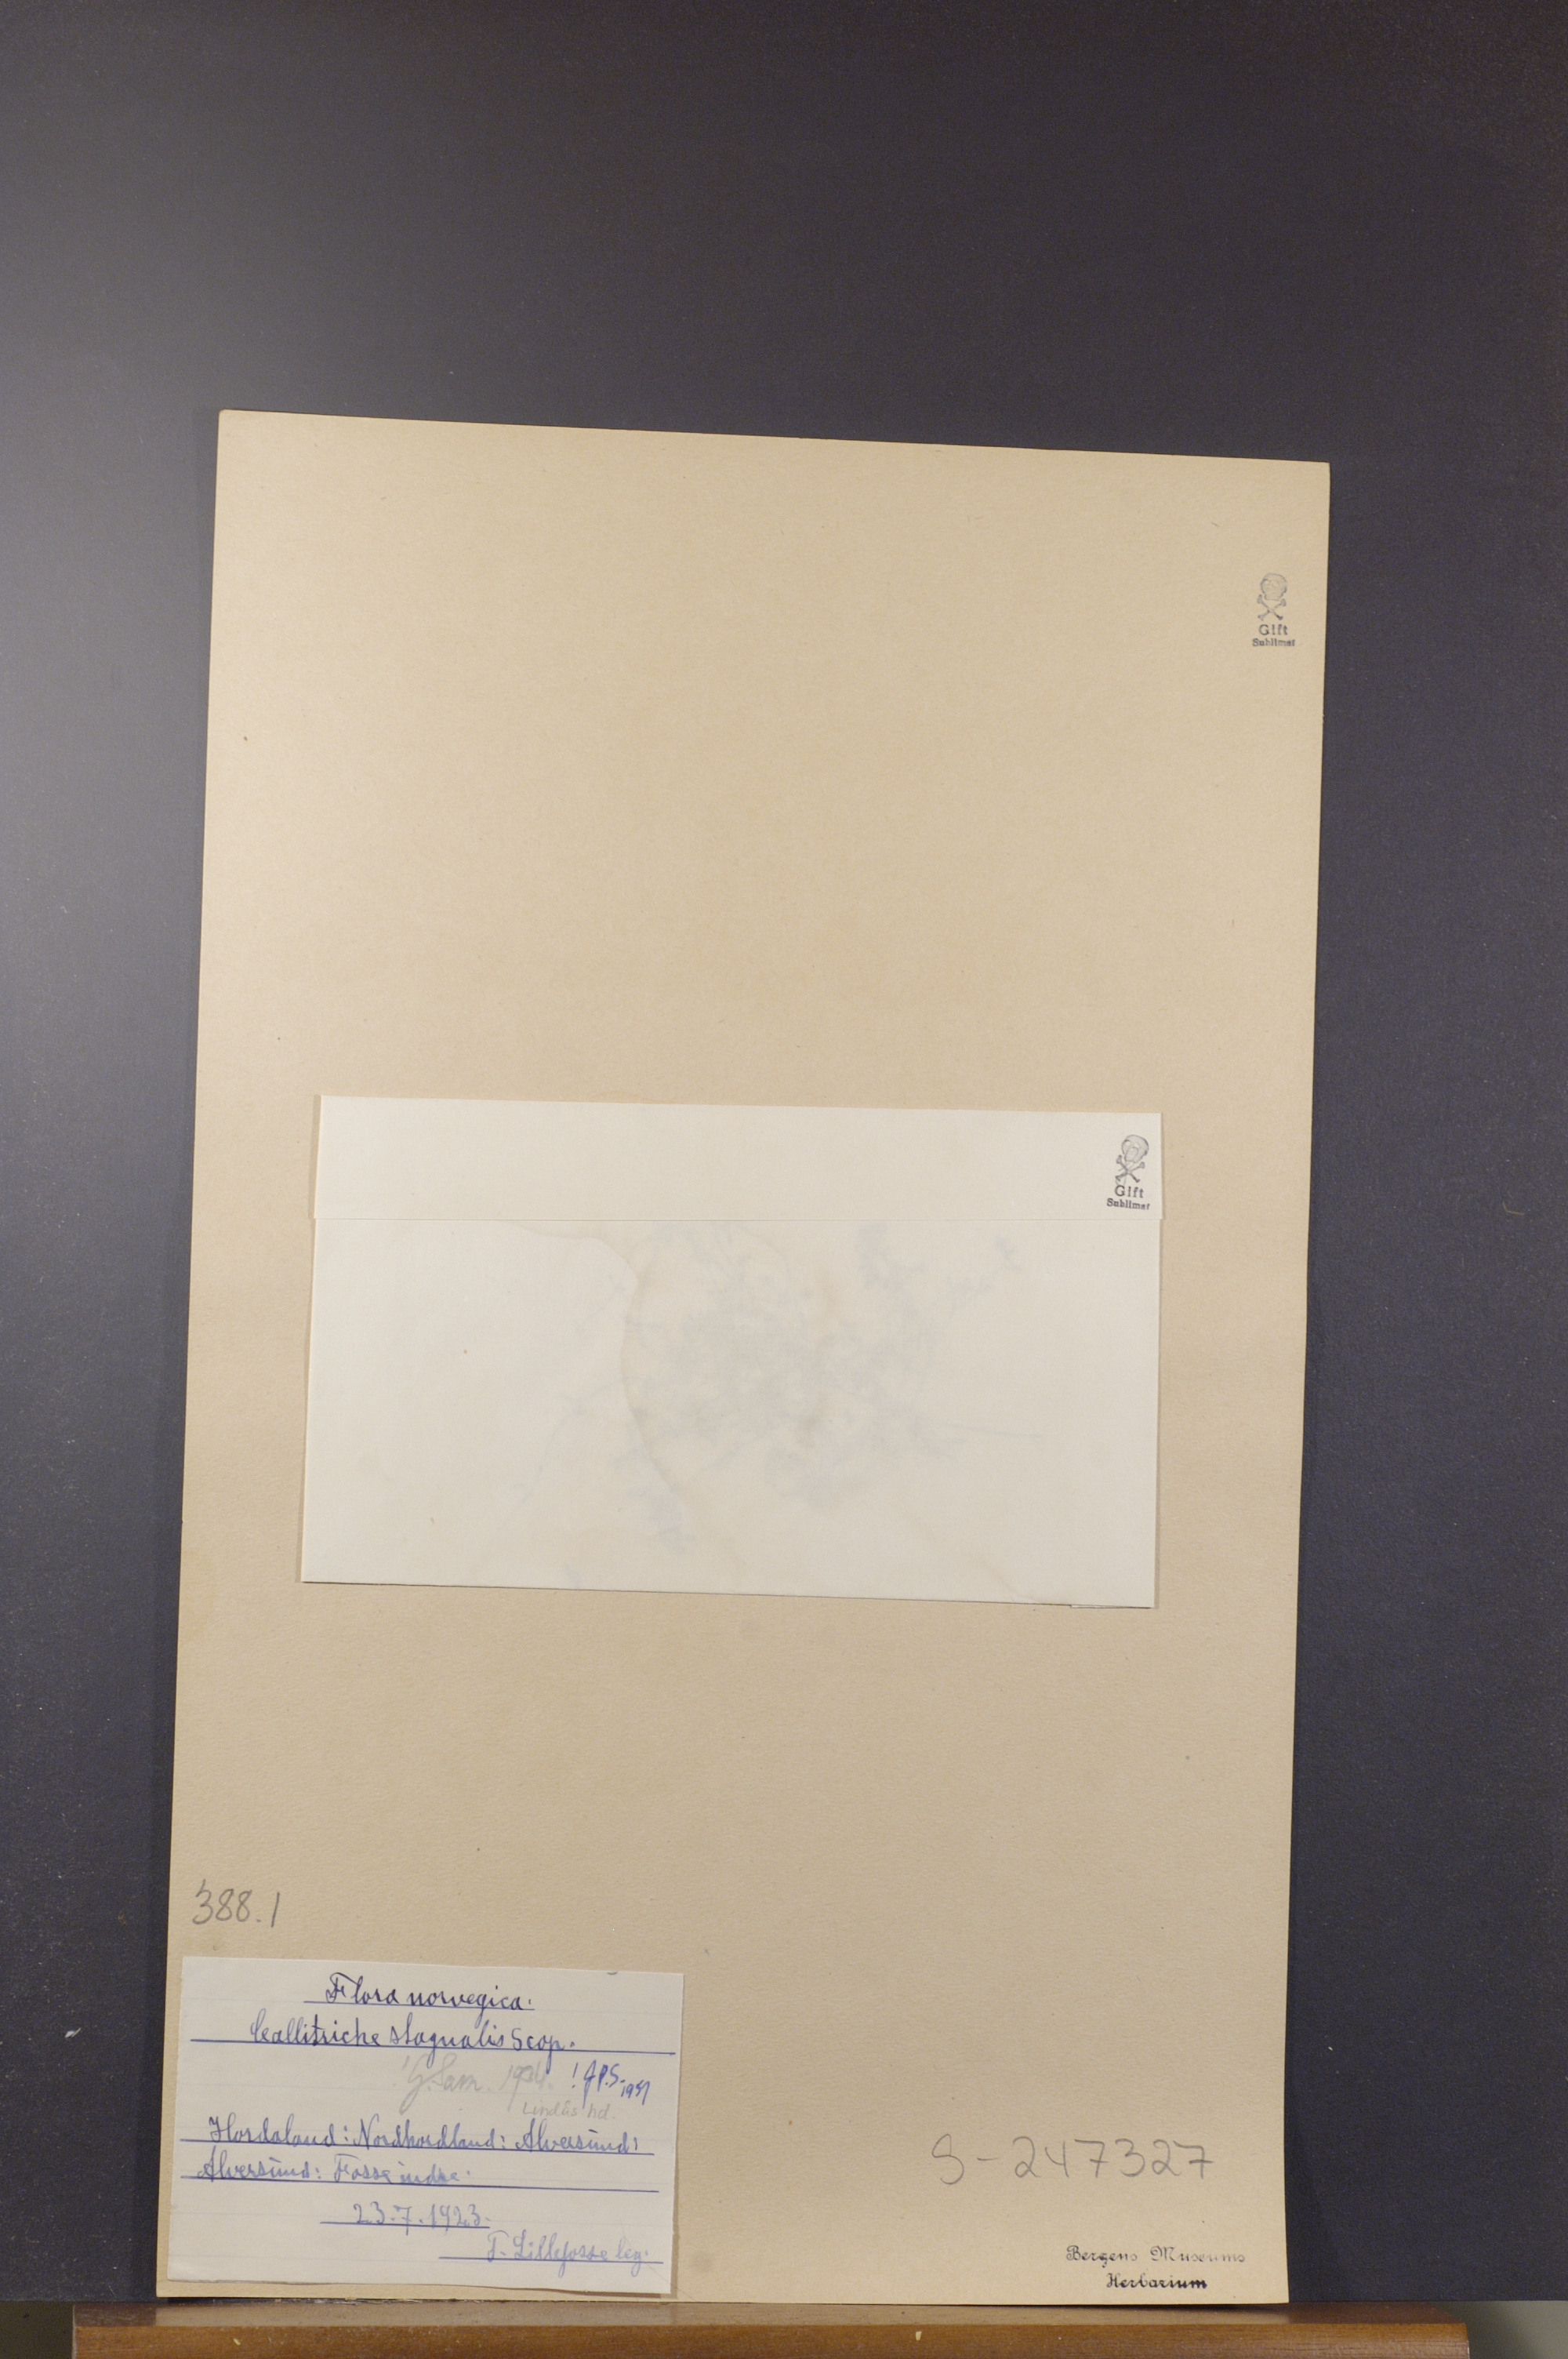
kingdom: Plantae
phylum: Tracheophyta
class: Magnoliopsida
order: Lamiales
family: Plantaginaceae
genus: Callitriche
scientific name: Callitriche stagnalis
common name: Common water-starwort
